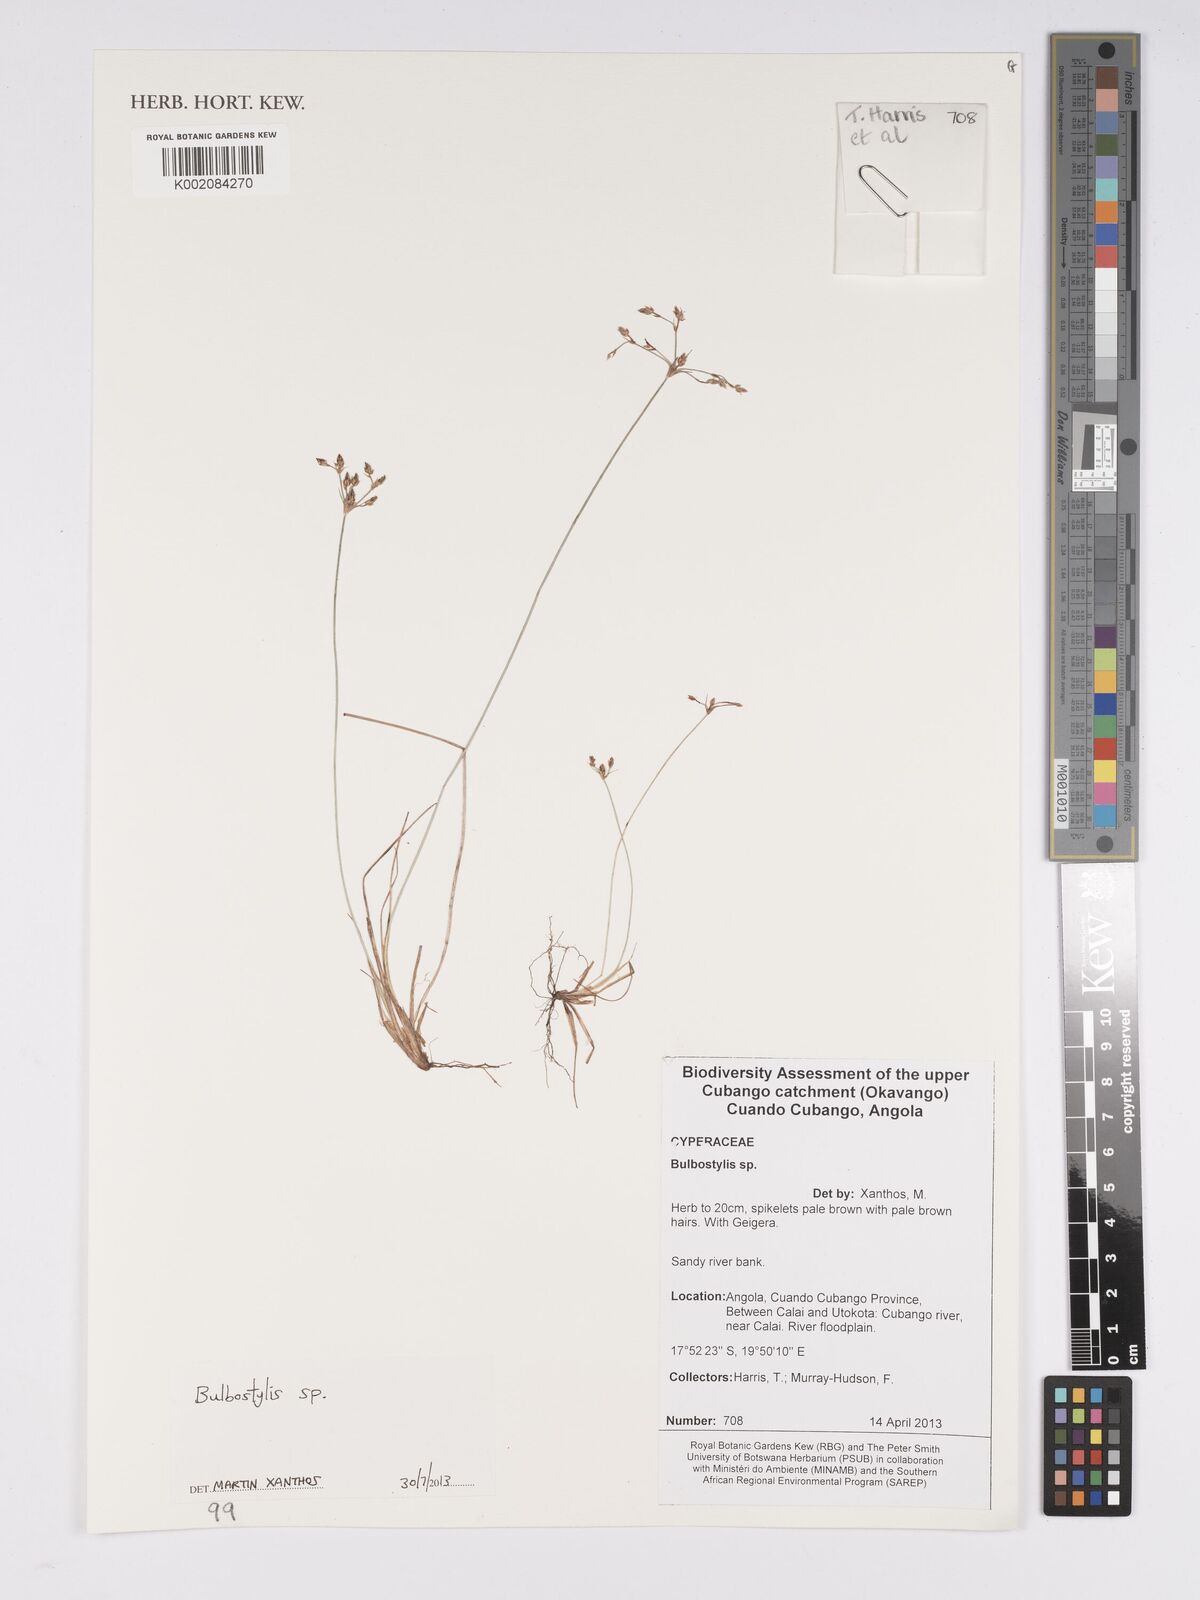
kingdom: Plantae
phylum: Tracheophyta
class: Liliopsida
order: Poales
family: Cyperaceae
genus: Bulbostylis
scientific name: Bulbostylis
